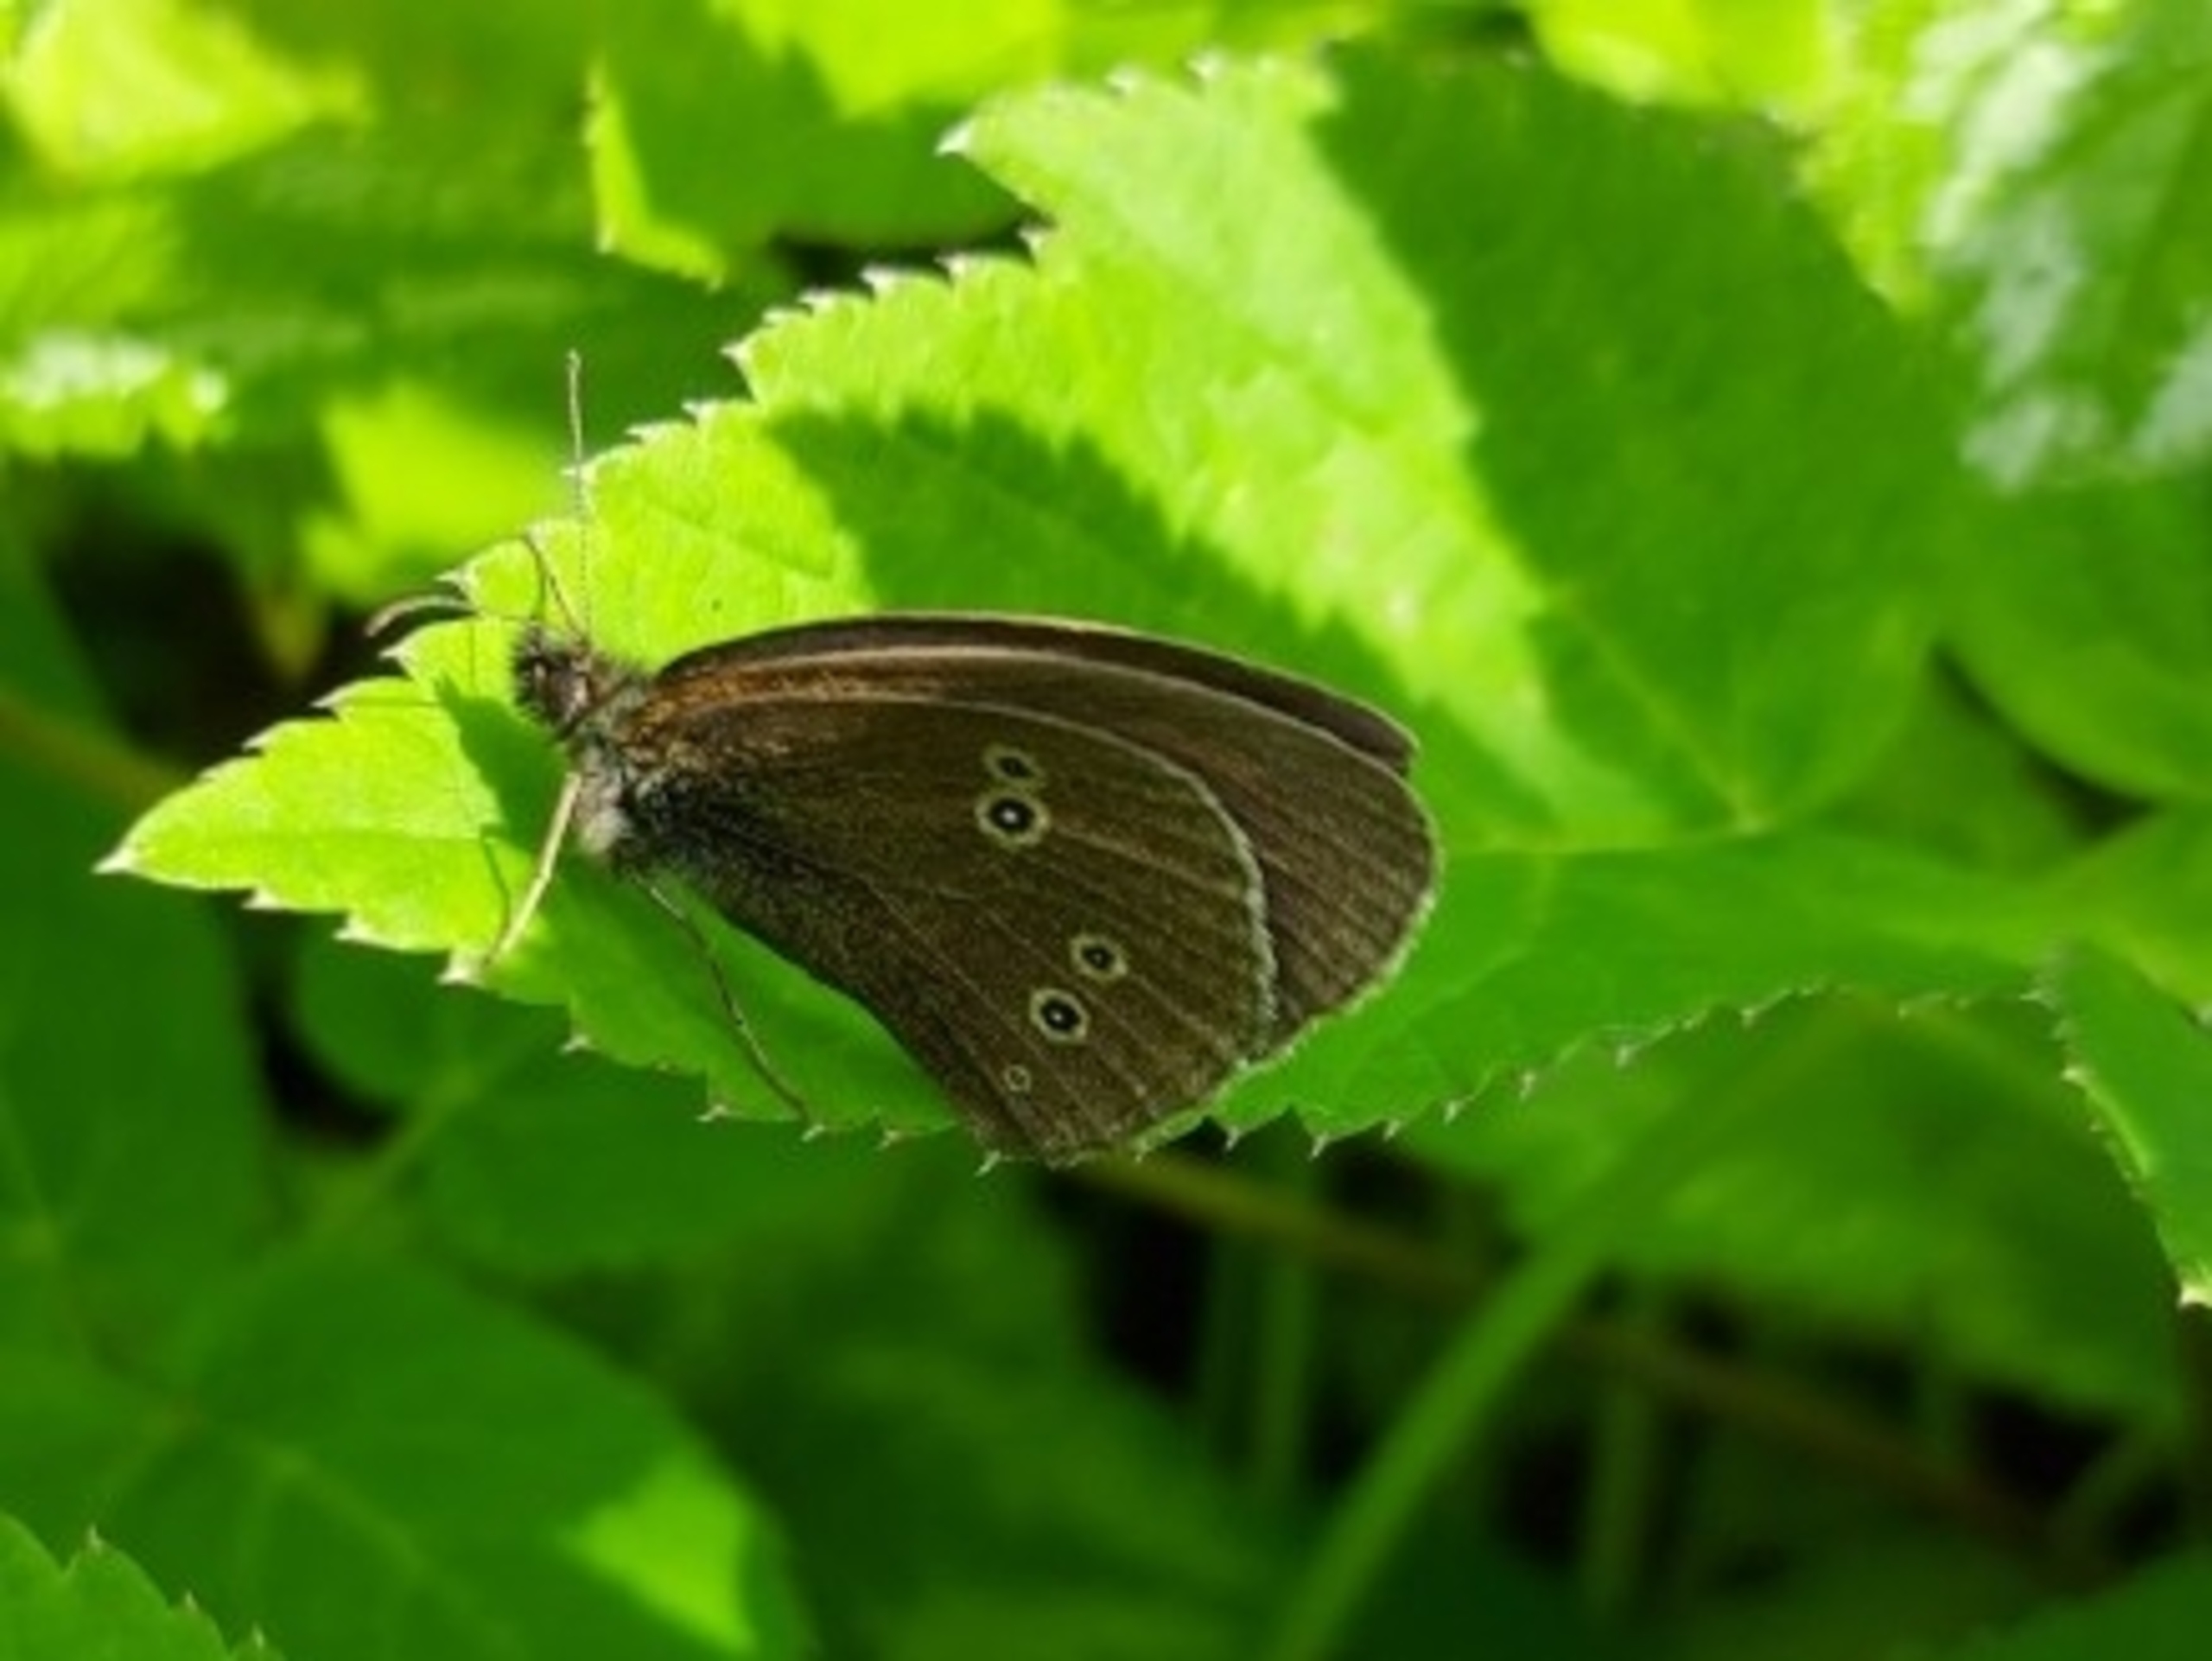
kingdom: Animalia
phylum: Arthropoda
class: Insecta
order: Lepidoptera
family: Nymphalidae
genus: Aphantopus
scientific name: Aphantopus hyperantus
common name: Engrandøje
